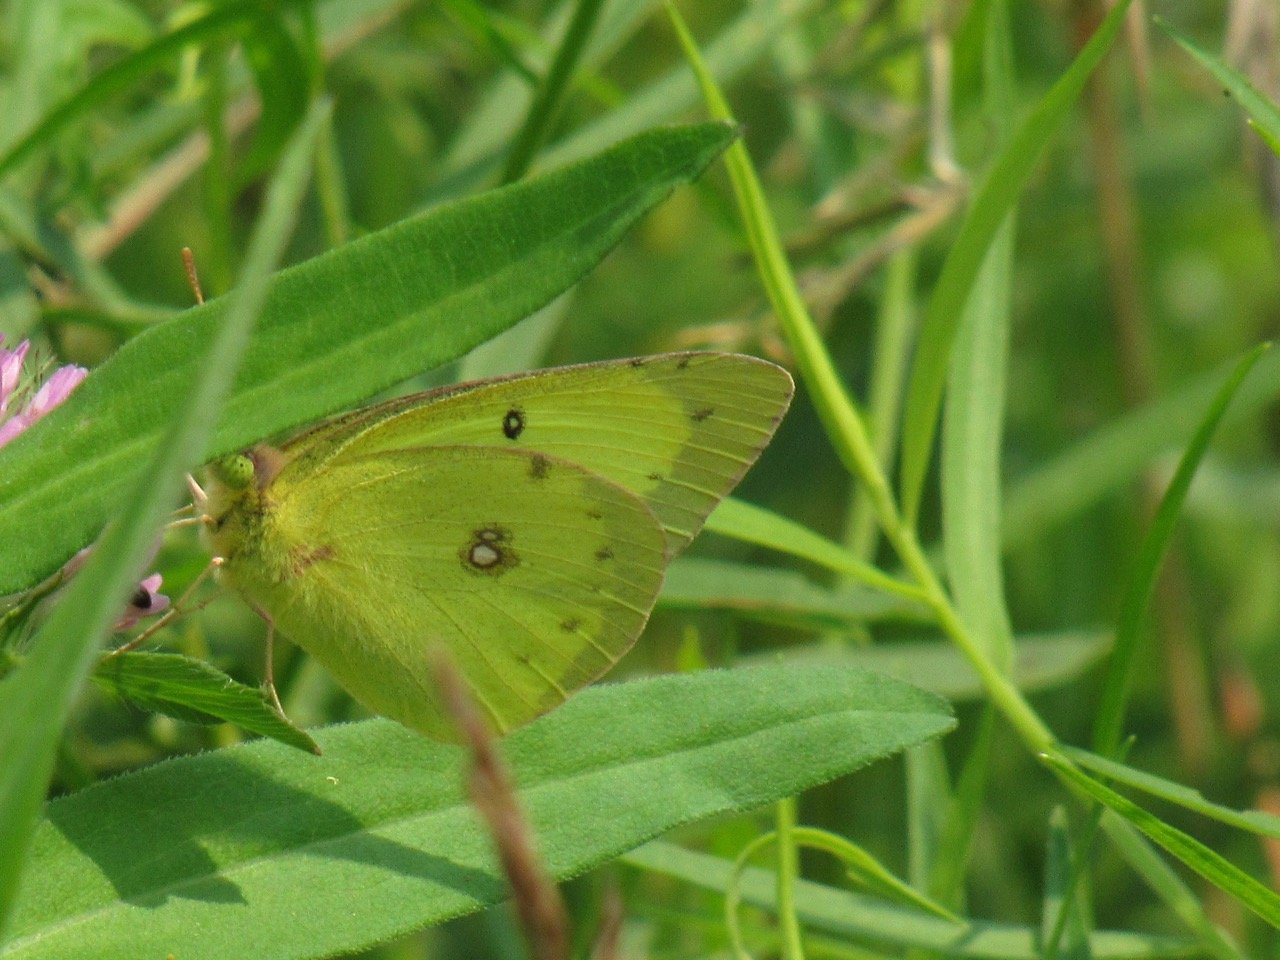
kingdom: Animalia
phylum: Arthropoda
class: Insecta
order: Lepidoptera
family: Pieridae
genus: Colias
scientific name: Colias philodice
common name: Clouded Sulphur
